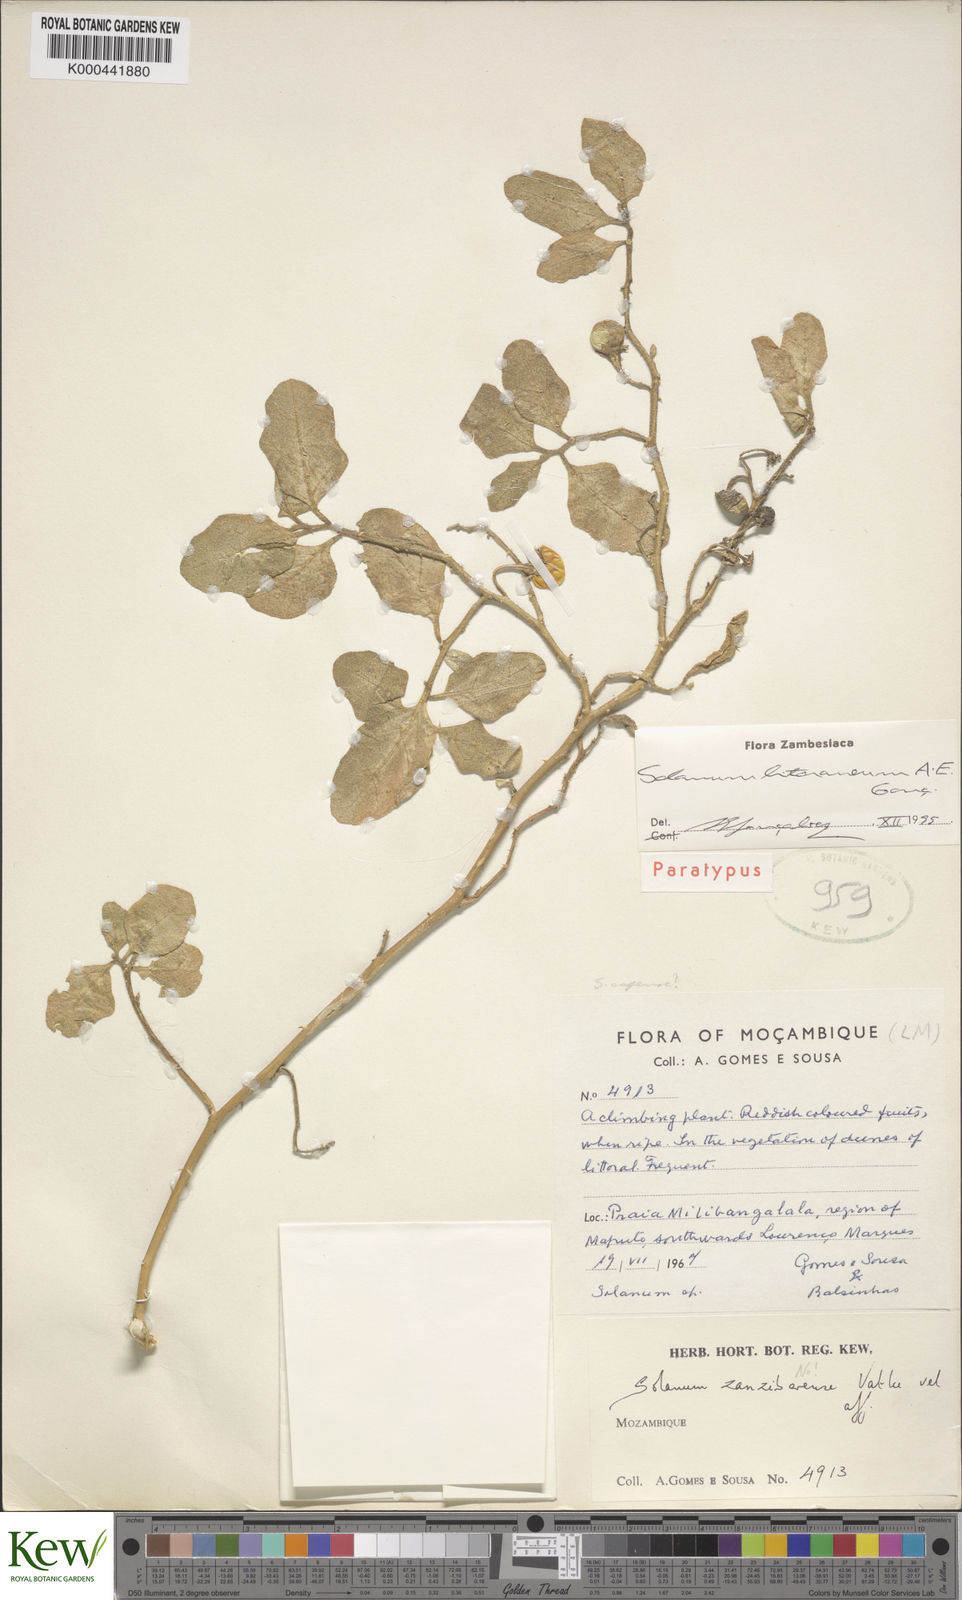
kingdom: Plantae
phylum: Tracheophyta
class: Magnoliopsida
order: Solanales
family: Solanaceae
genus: Solanum
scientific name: Solanum
